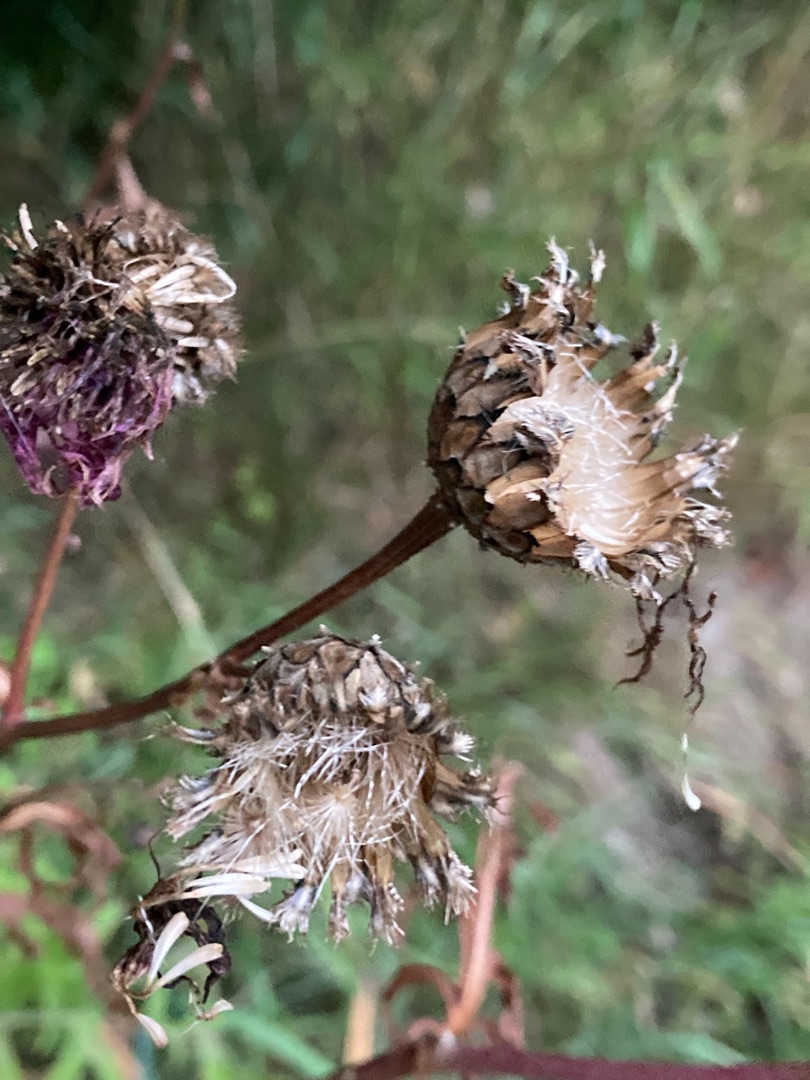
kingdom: Plantae
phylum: Tracheophyta
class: Magnoliopsida
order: Asterales
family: Asteraceae
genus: Centaurea
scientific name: Centaurea scabiosa
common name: Stor knopurt
